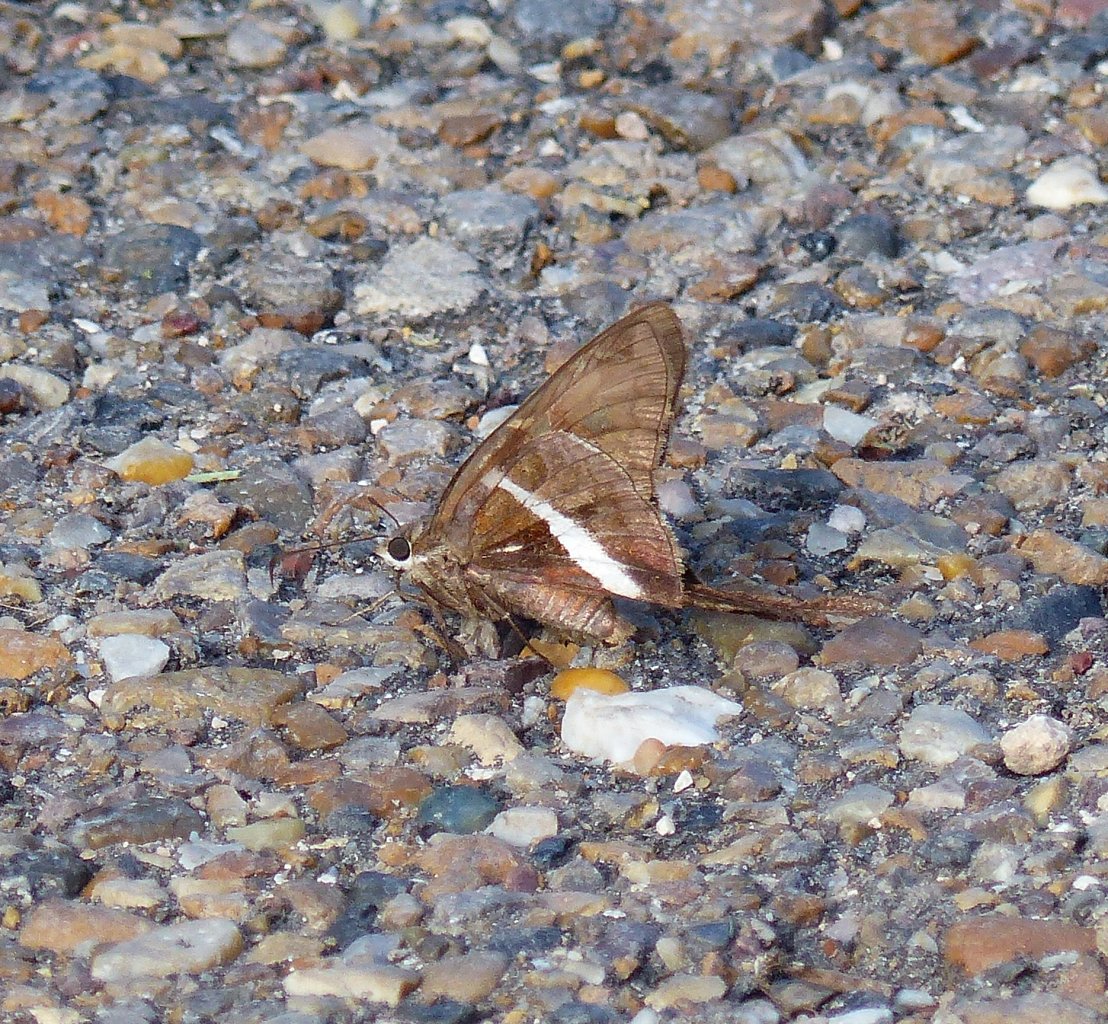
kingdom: Animalia
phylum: Arthropoda
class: Insecta
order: Lepidoptera
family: Hesperiidae
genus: Chioides
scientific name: Chioides catillus
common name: White-striped Longtail
